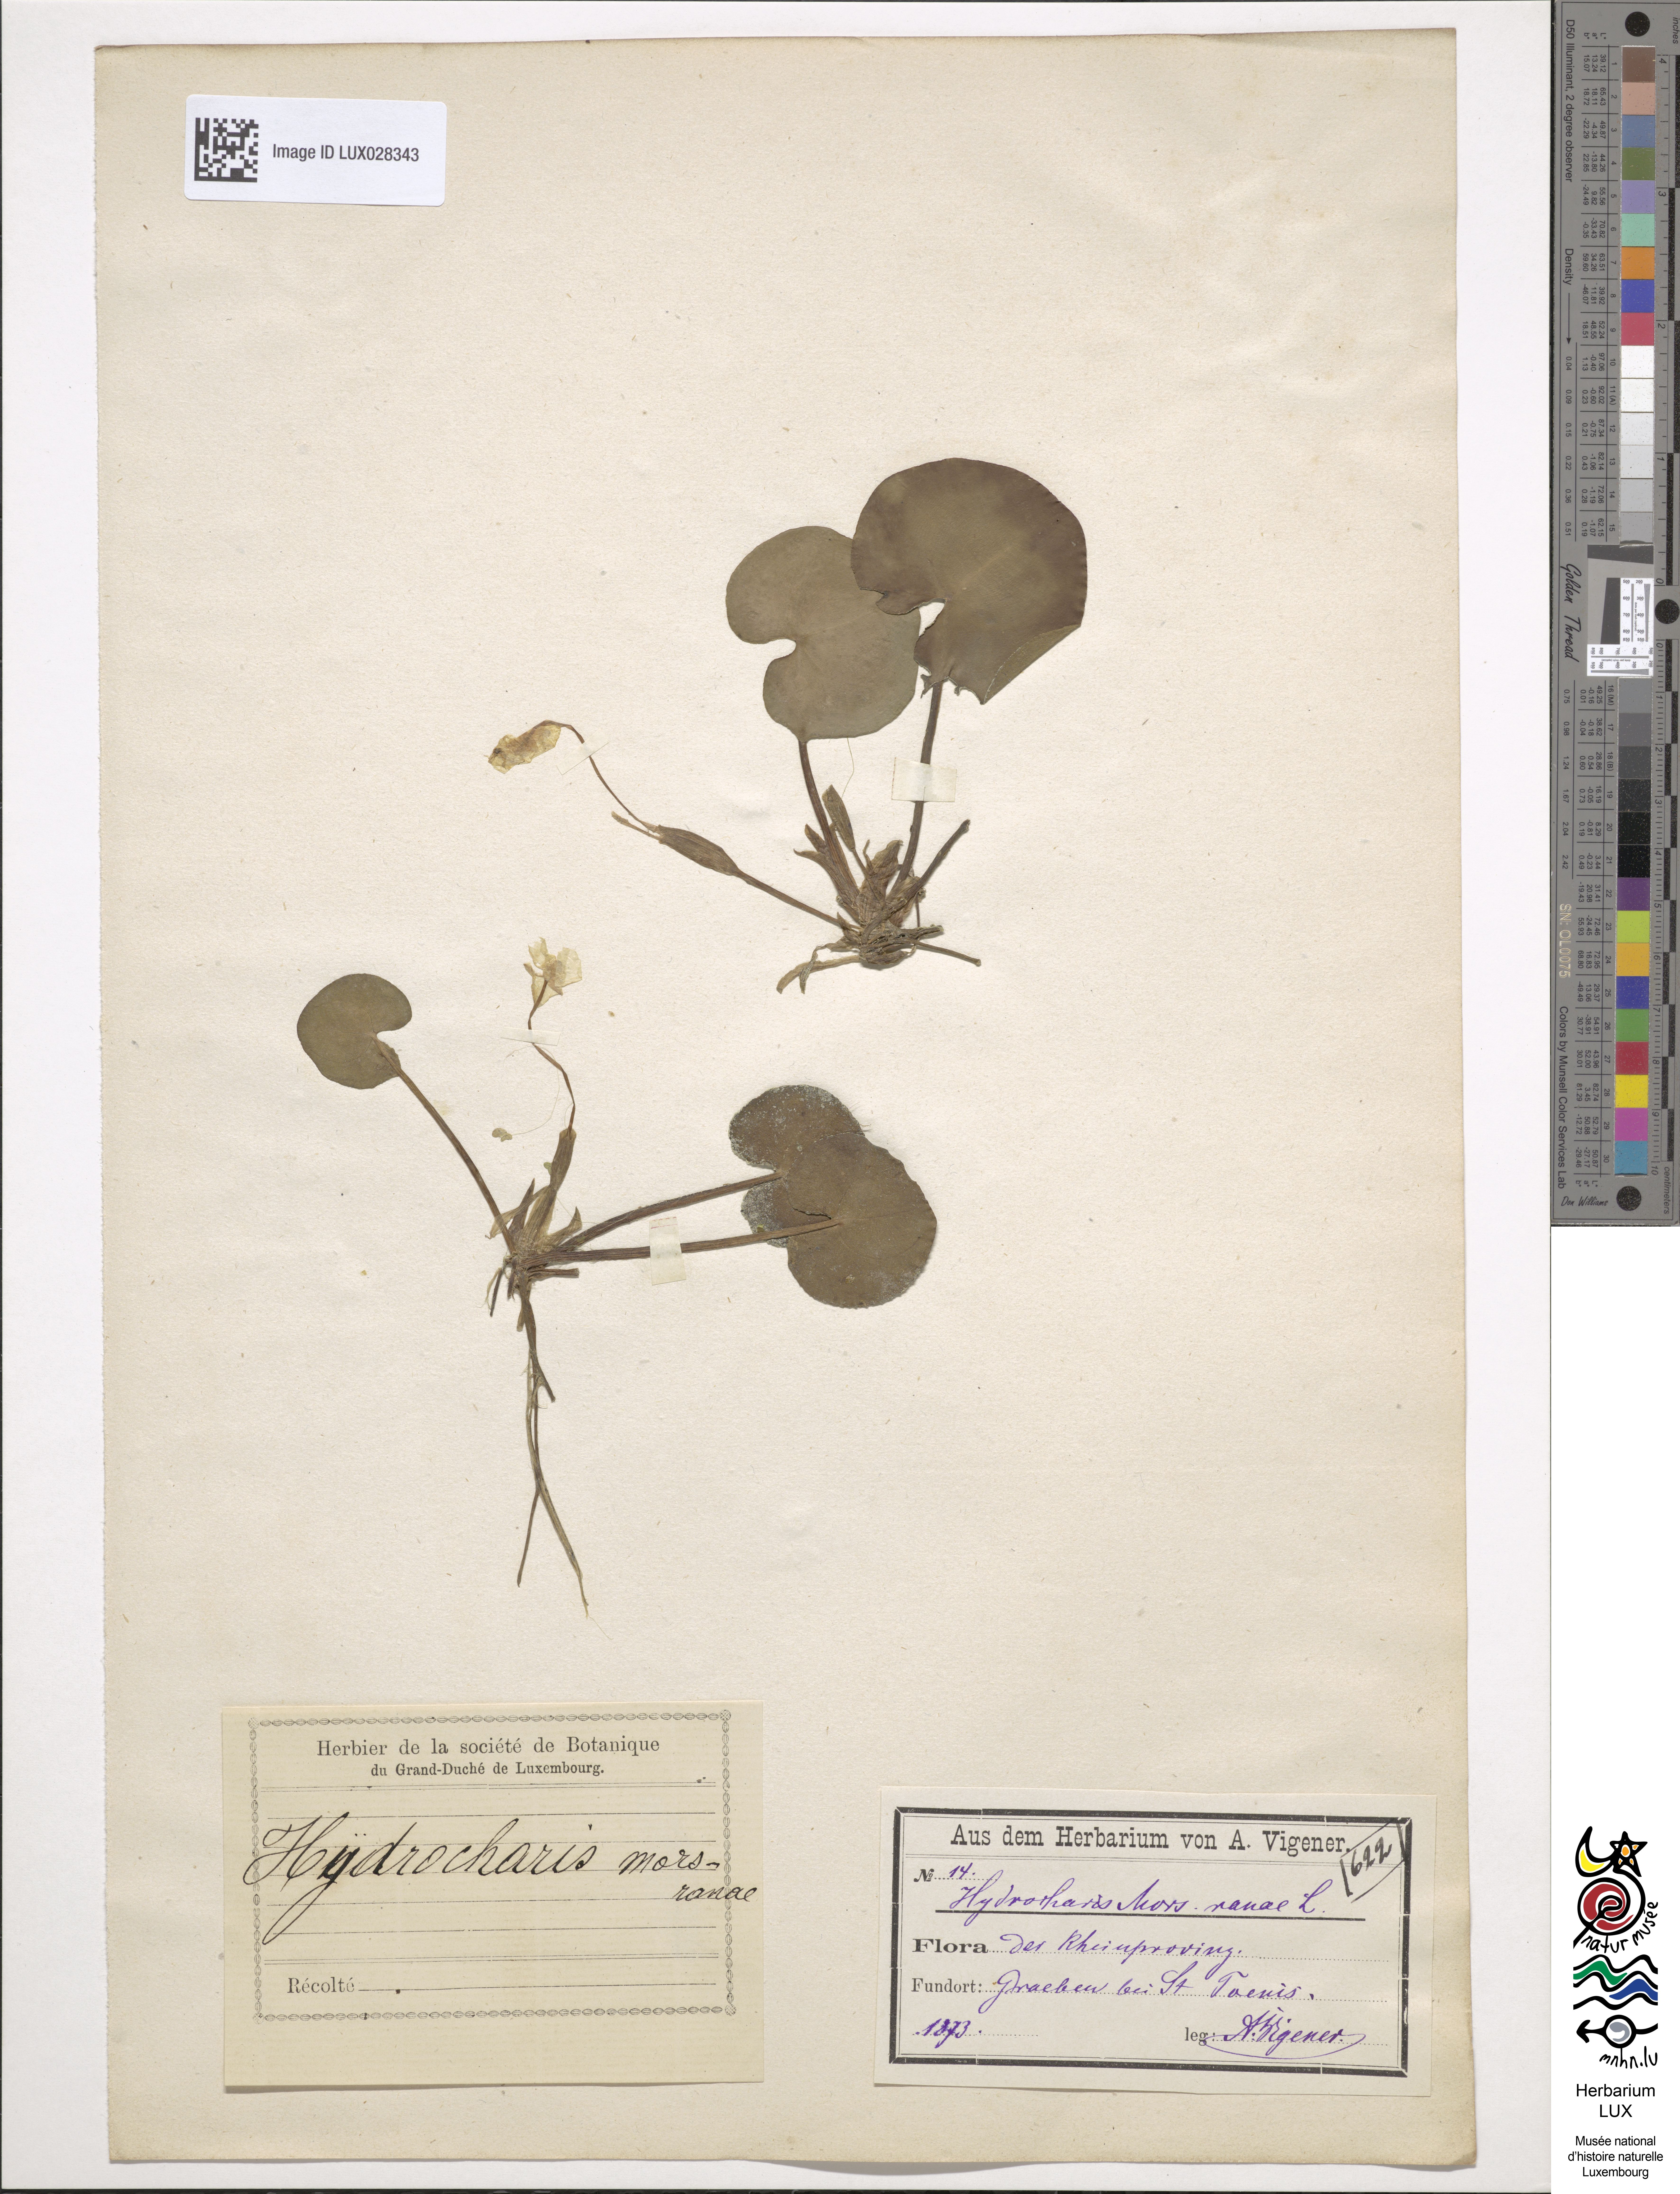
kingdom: Plantae
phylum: Tracheophyta
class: Liliopsida
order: Alismatales
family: Hydrocharitaceae
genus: Hydrocharis
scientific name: Hydrocharis morsus-ranae
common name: Frogbit
